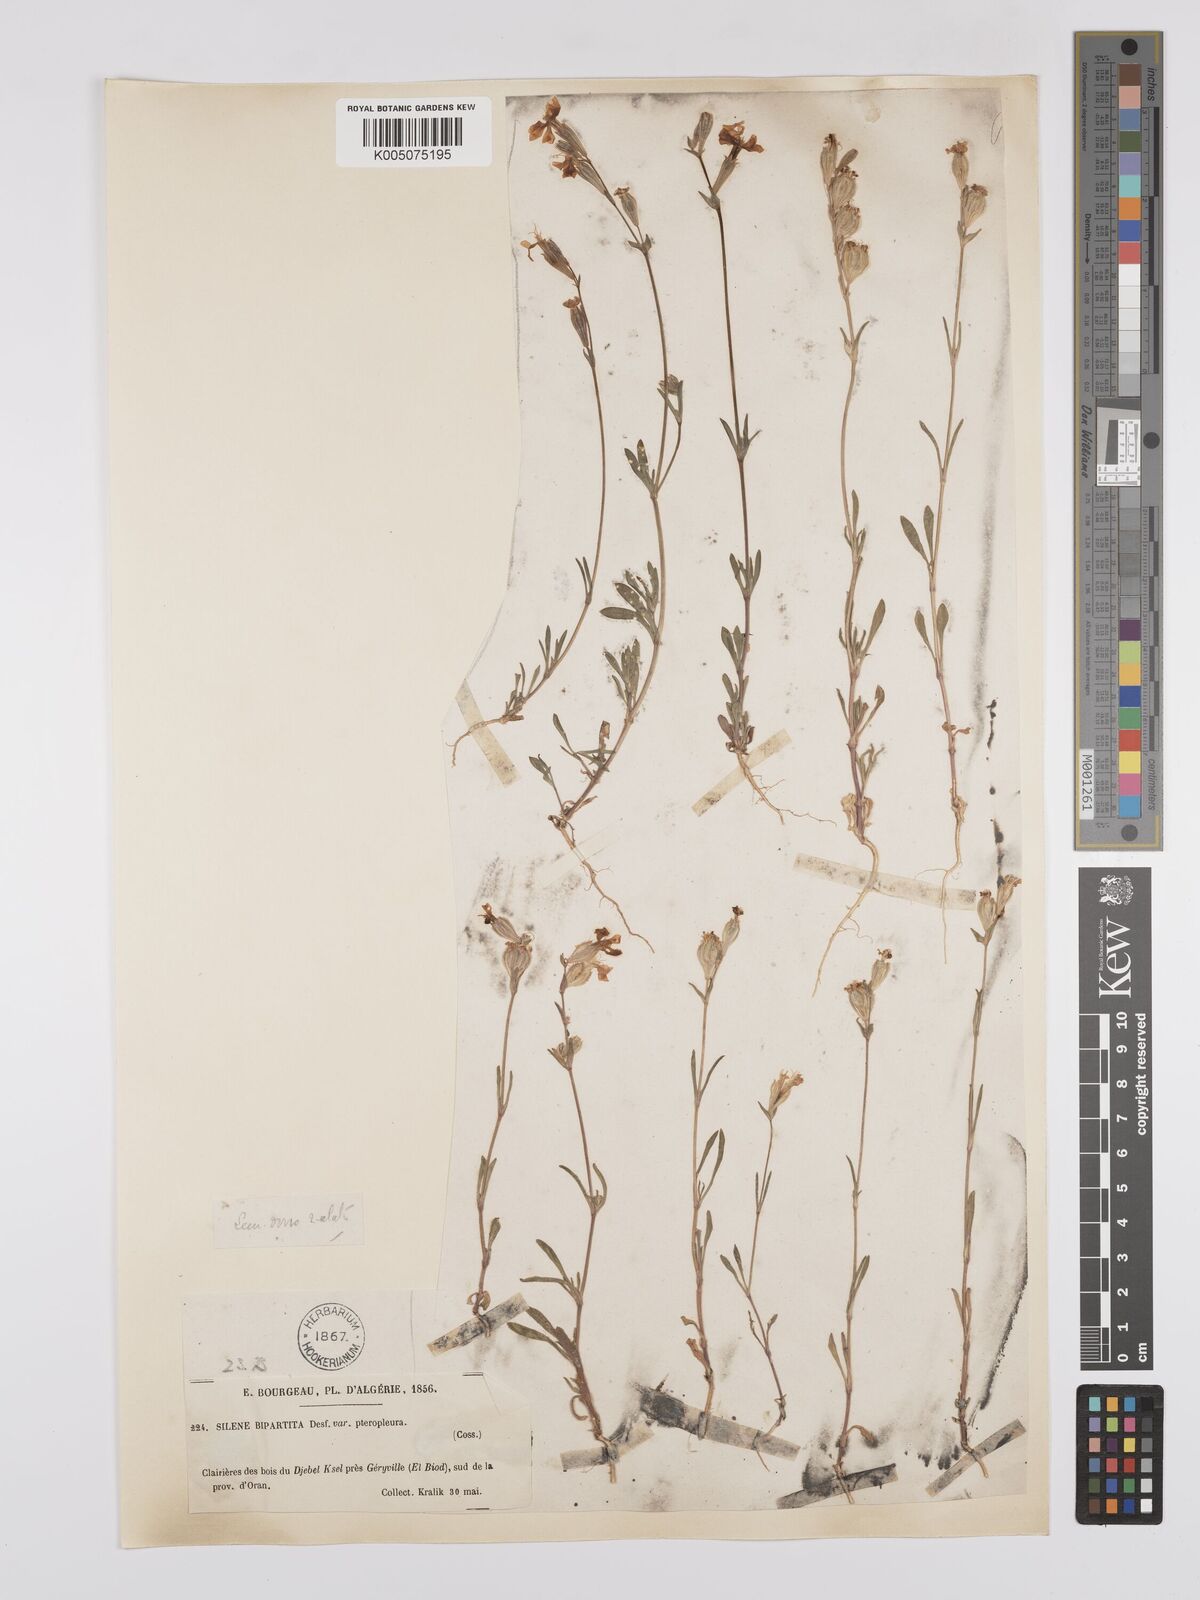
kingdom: Plantae
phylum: Tracheophyta
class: Magnoliopsida
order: Caryophyllales
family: Caryophyllaceae
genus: Silene
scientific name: Silene stricta
